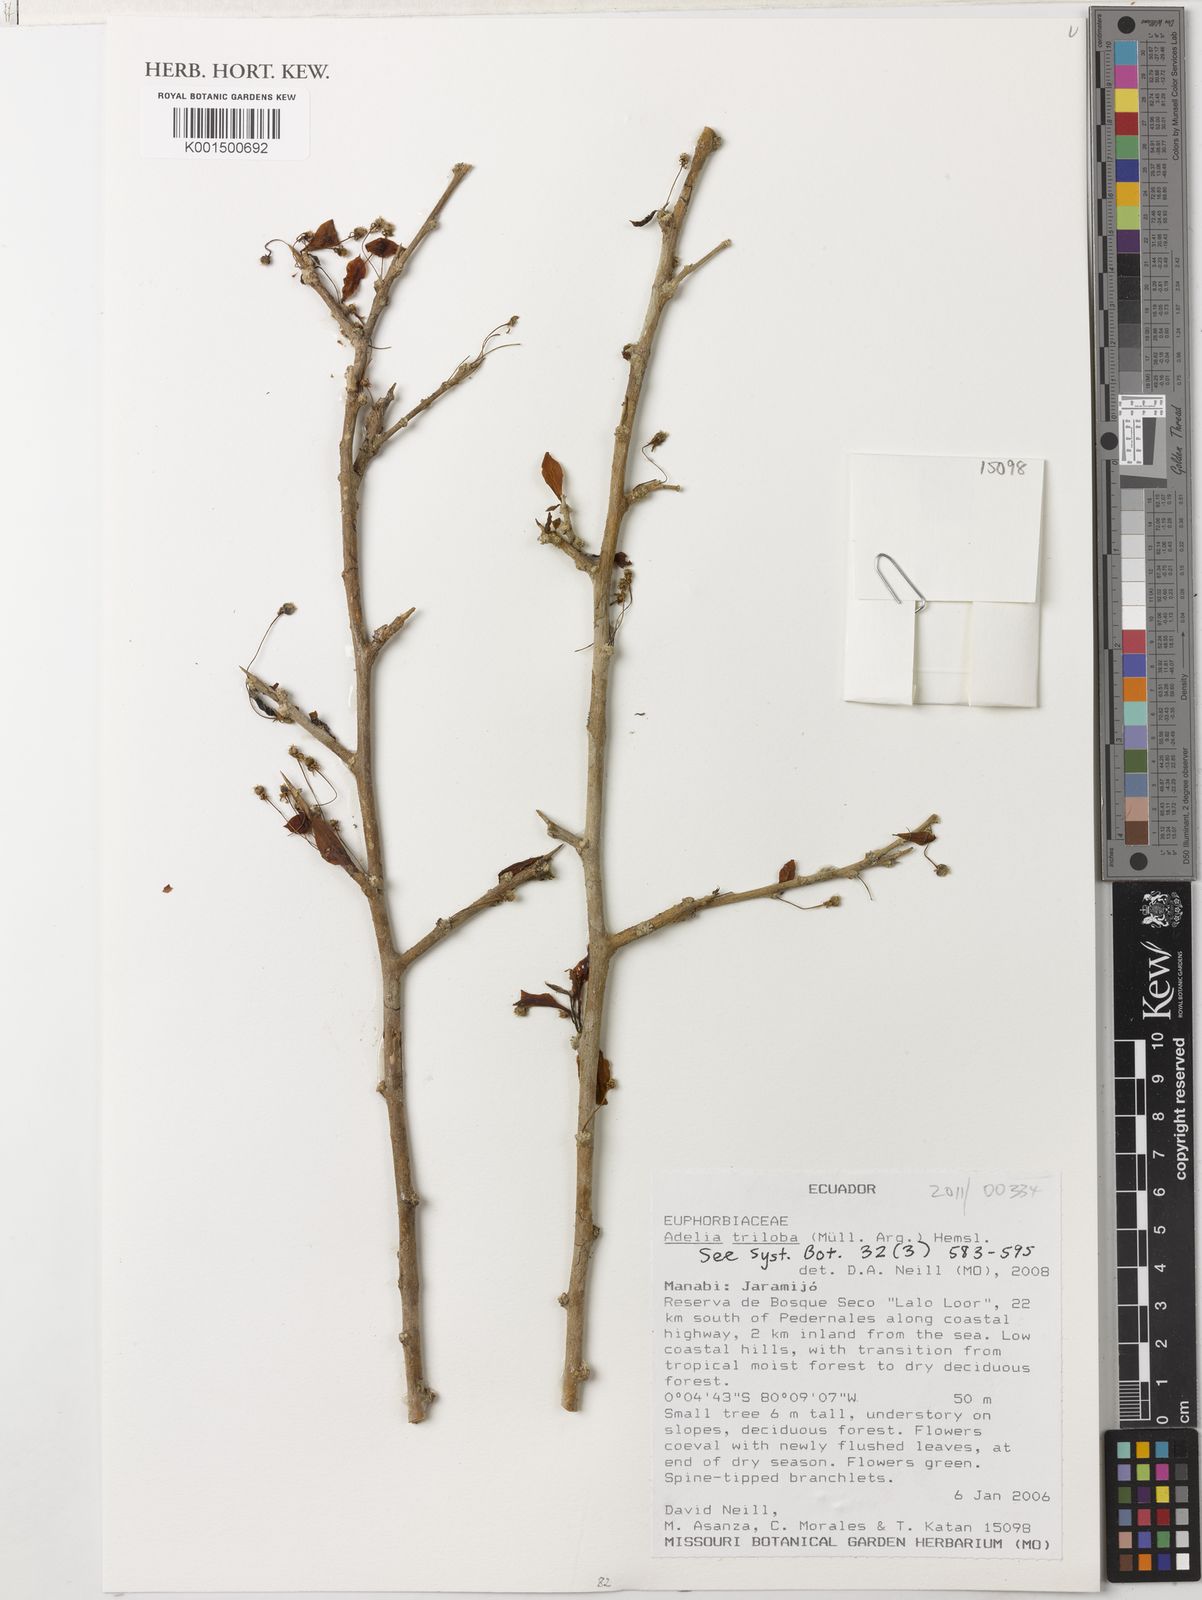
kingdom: Plantae
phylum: Tracheophyta
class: Magnoliopsida
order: Malpighiales
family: Euphorbiaceae
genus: Adelia
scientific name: Adelia triloba
